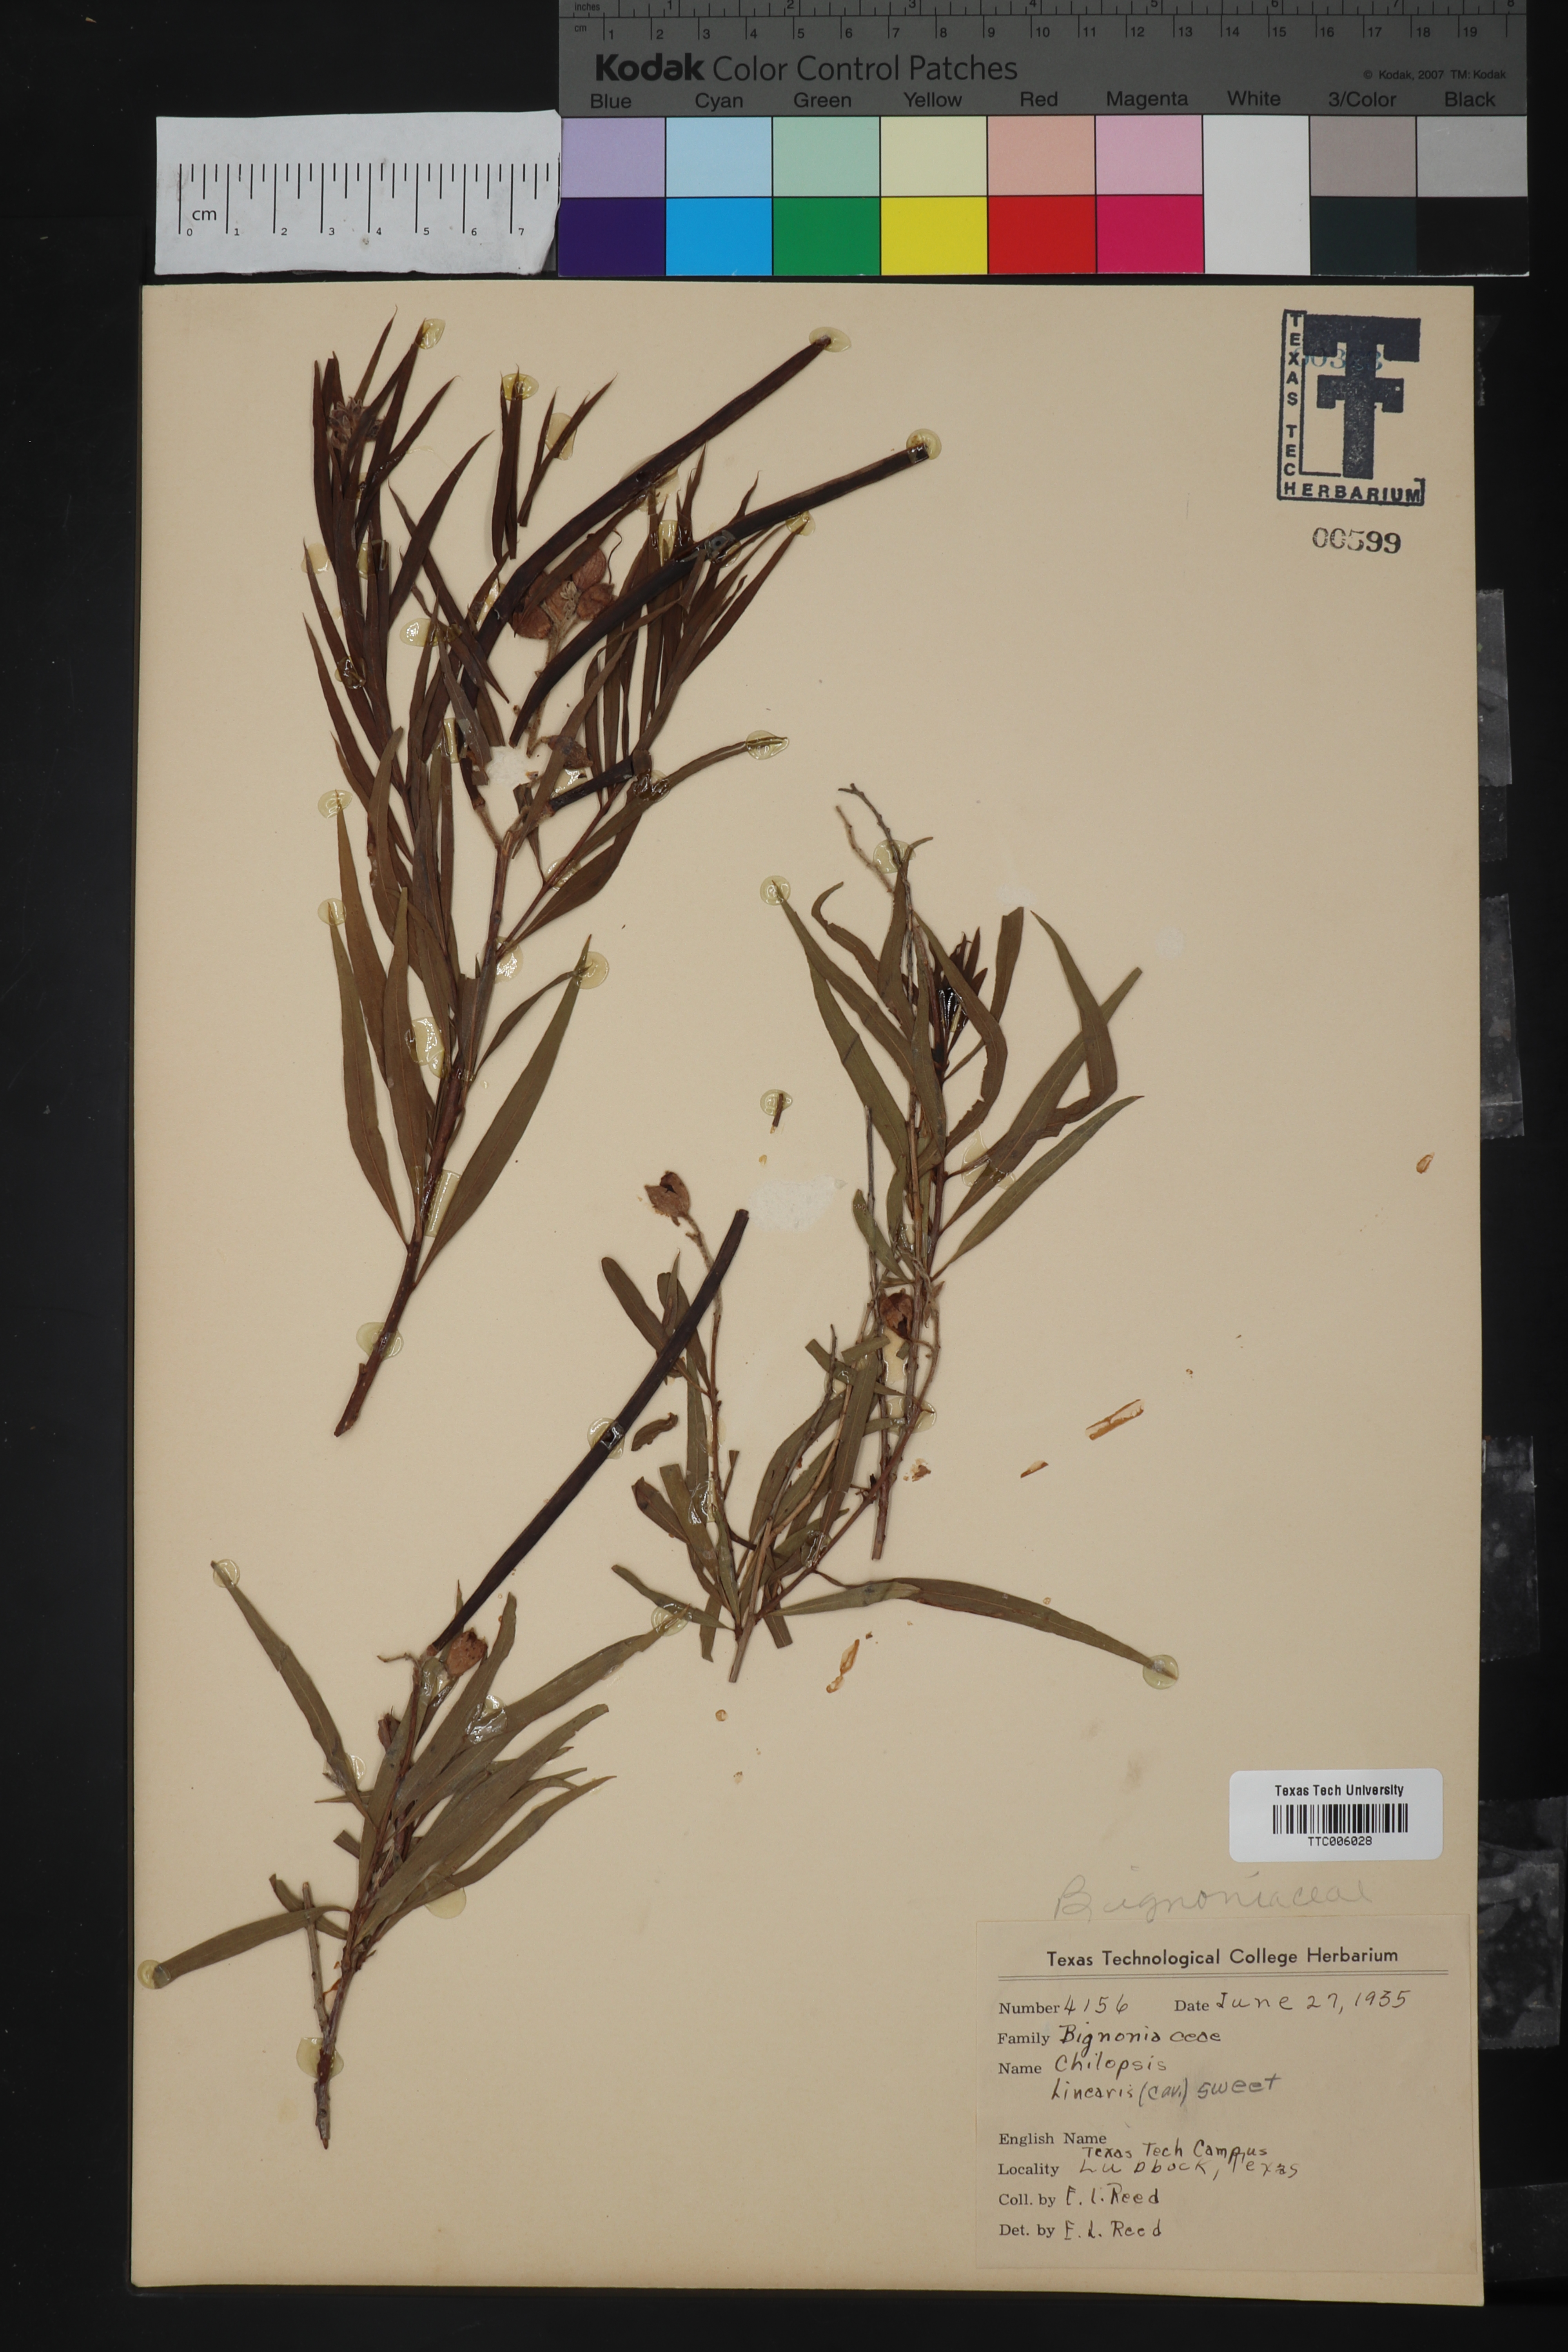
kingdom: Plantae
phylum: Tracheophyta
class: Magnoliopsida
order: Lamiales
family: Bignoniaceae
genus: Chilopsis
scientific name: Chilopsis linearis
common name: Desert-willow
